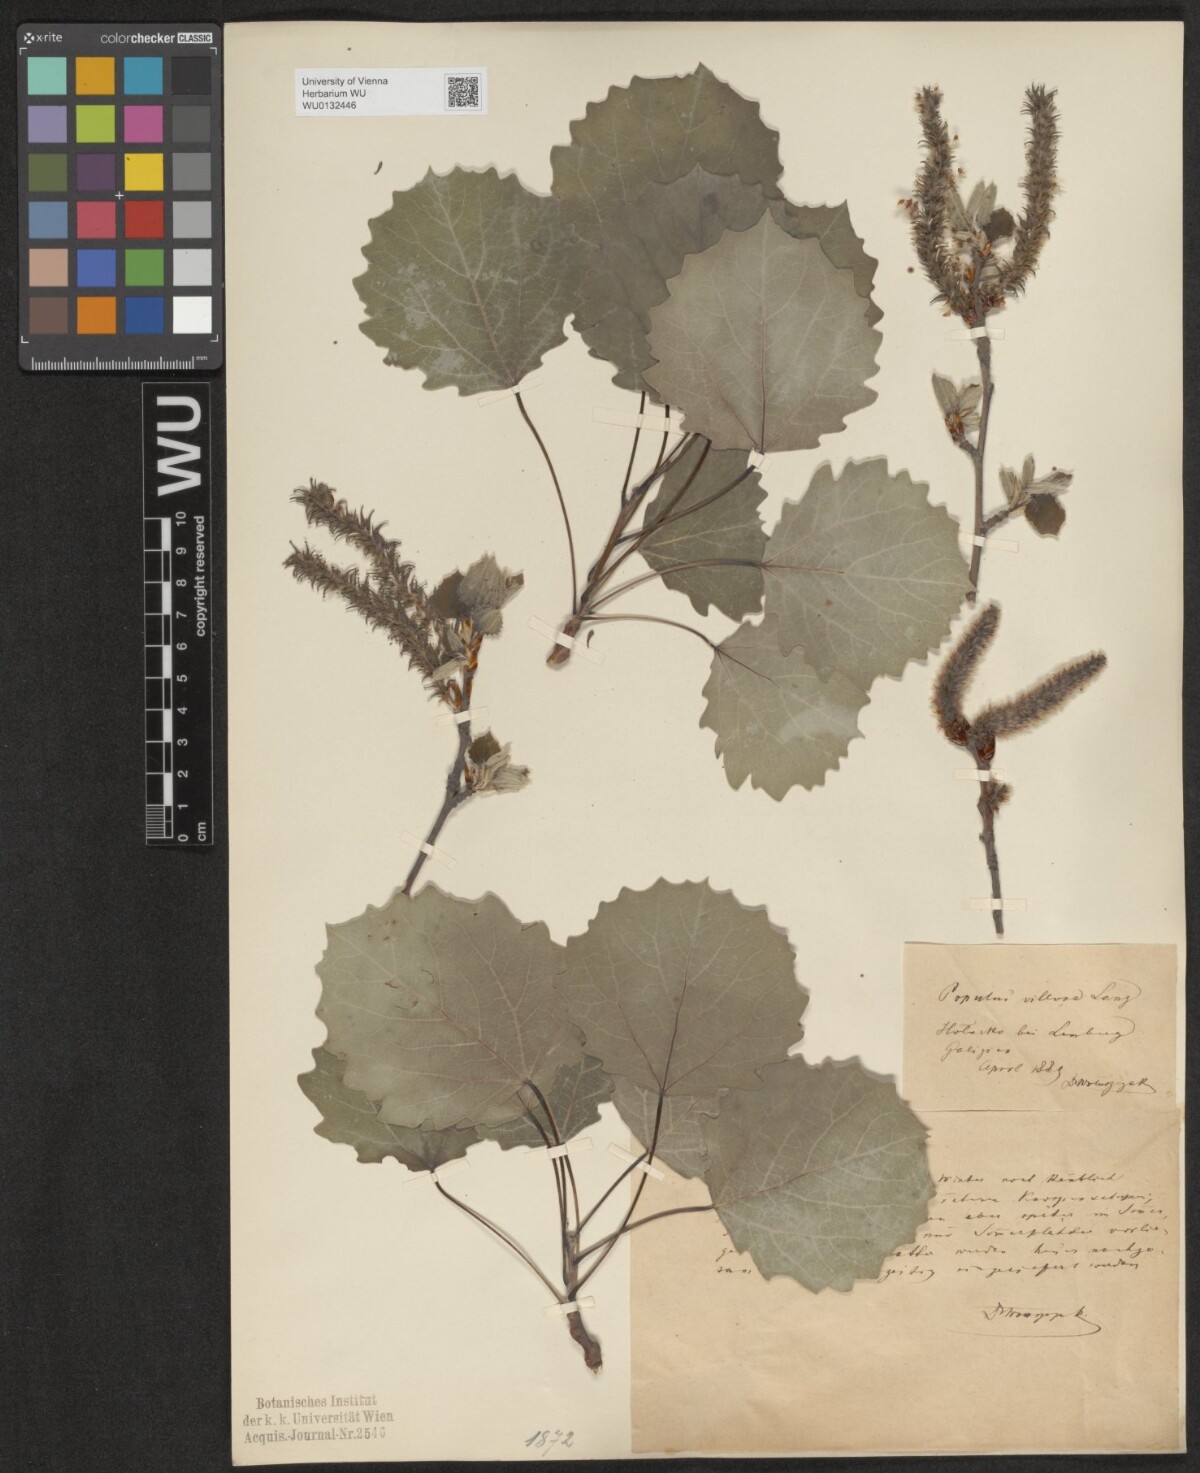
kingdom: Plantae
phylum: Tracheophyta
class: Magnoliopsida
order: Malpighiales
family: Salicaceae
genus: Populus
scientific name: Populus tremula
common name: European aspen
